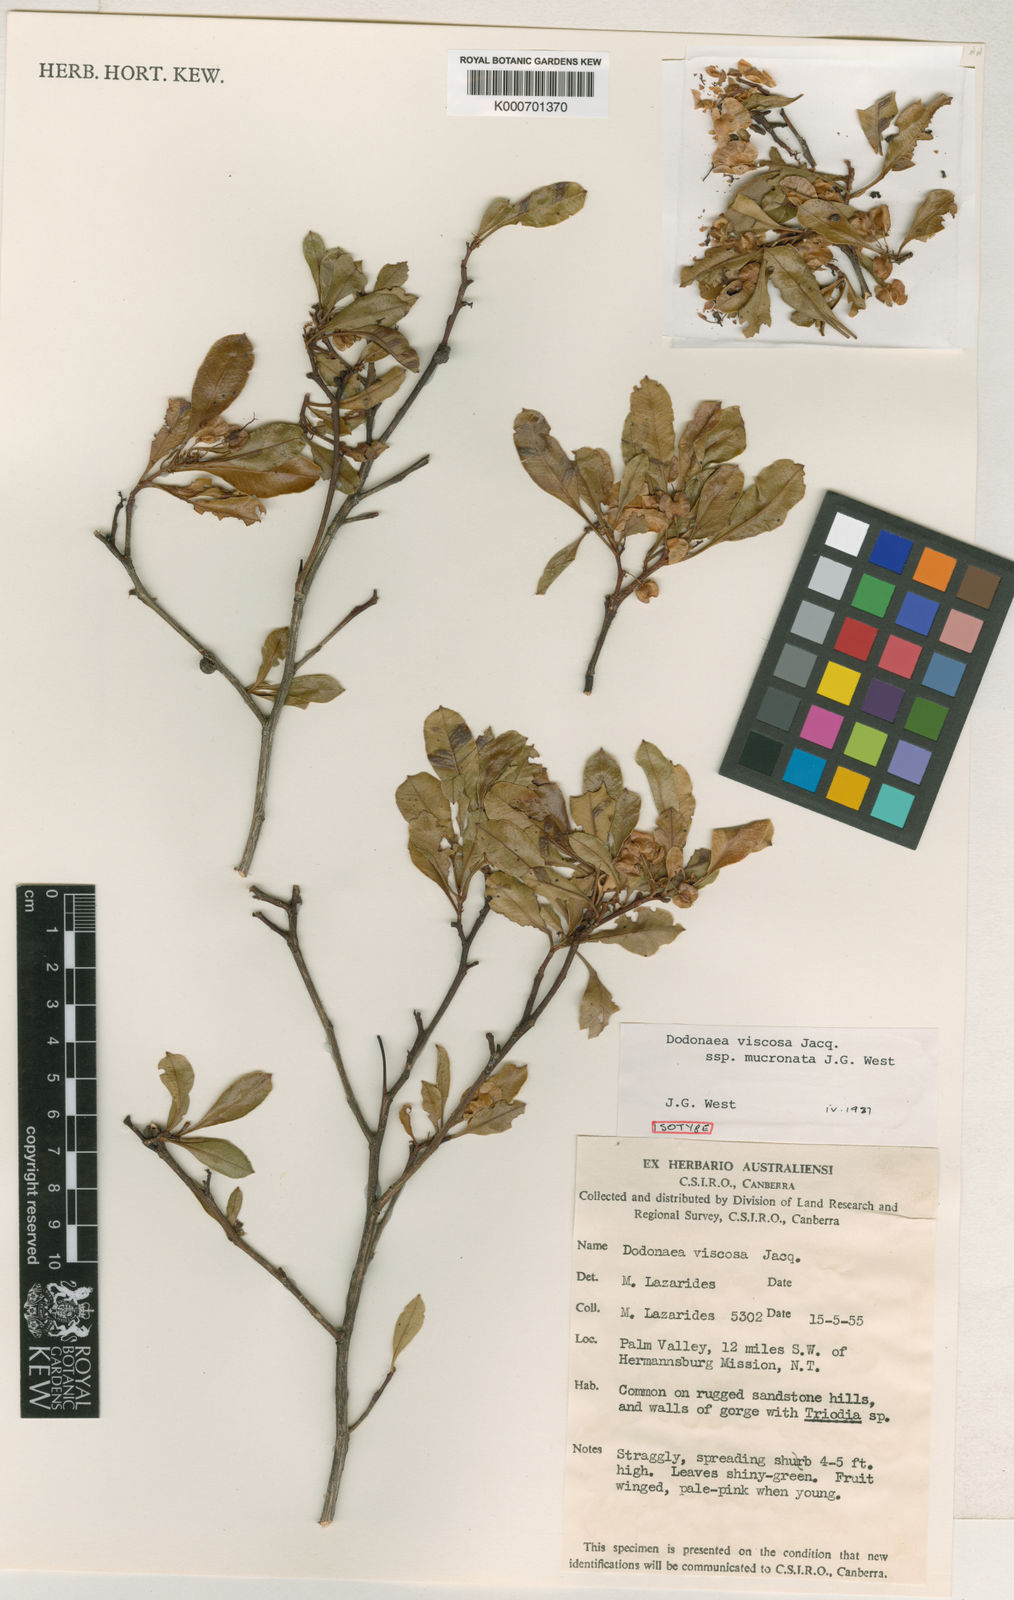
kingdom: Plantae
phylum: Tracheophyta
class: Magnoliopsida
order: Sapindales
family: Sapindaceae
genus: Dodonaea
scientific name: Dodonaea viscosa
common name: Hopbush
